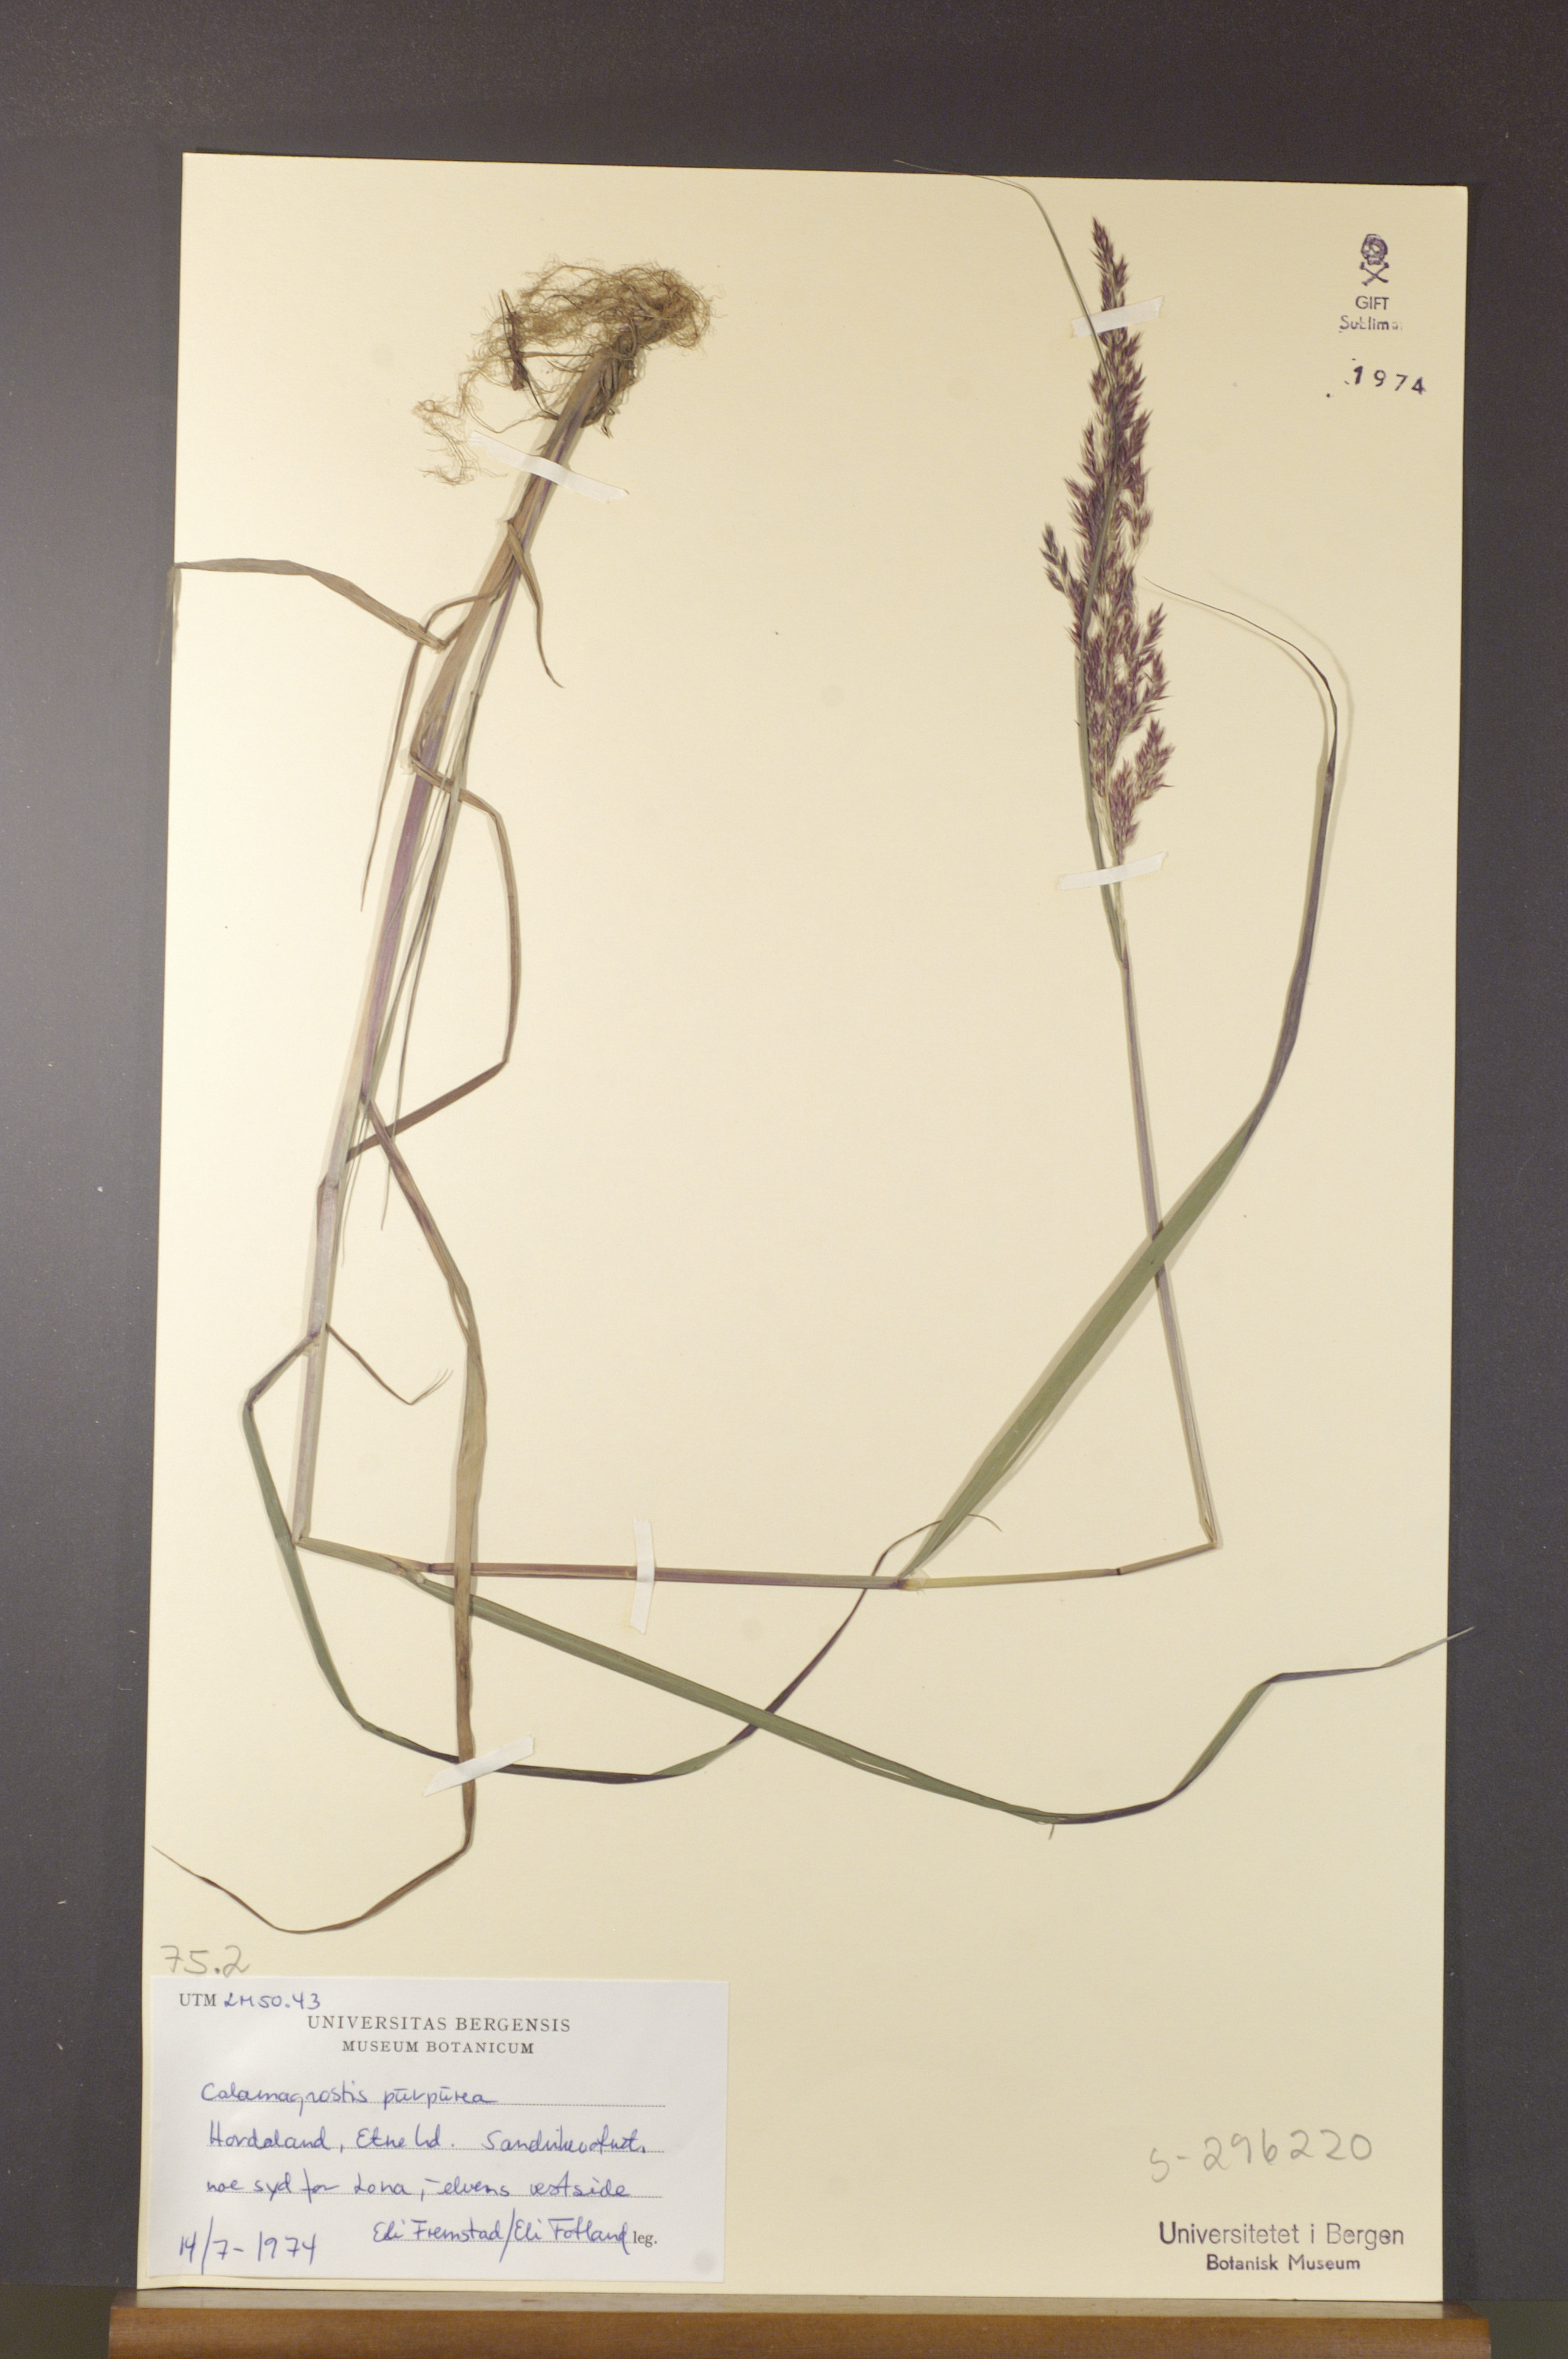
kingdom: Plantae
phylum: Tracheophyta
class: Liliopsida
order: Poales
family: Poaceae
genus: Calamagrostis
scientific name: Calamagrostis purpurea
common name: Scandinavian small-reed
